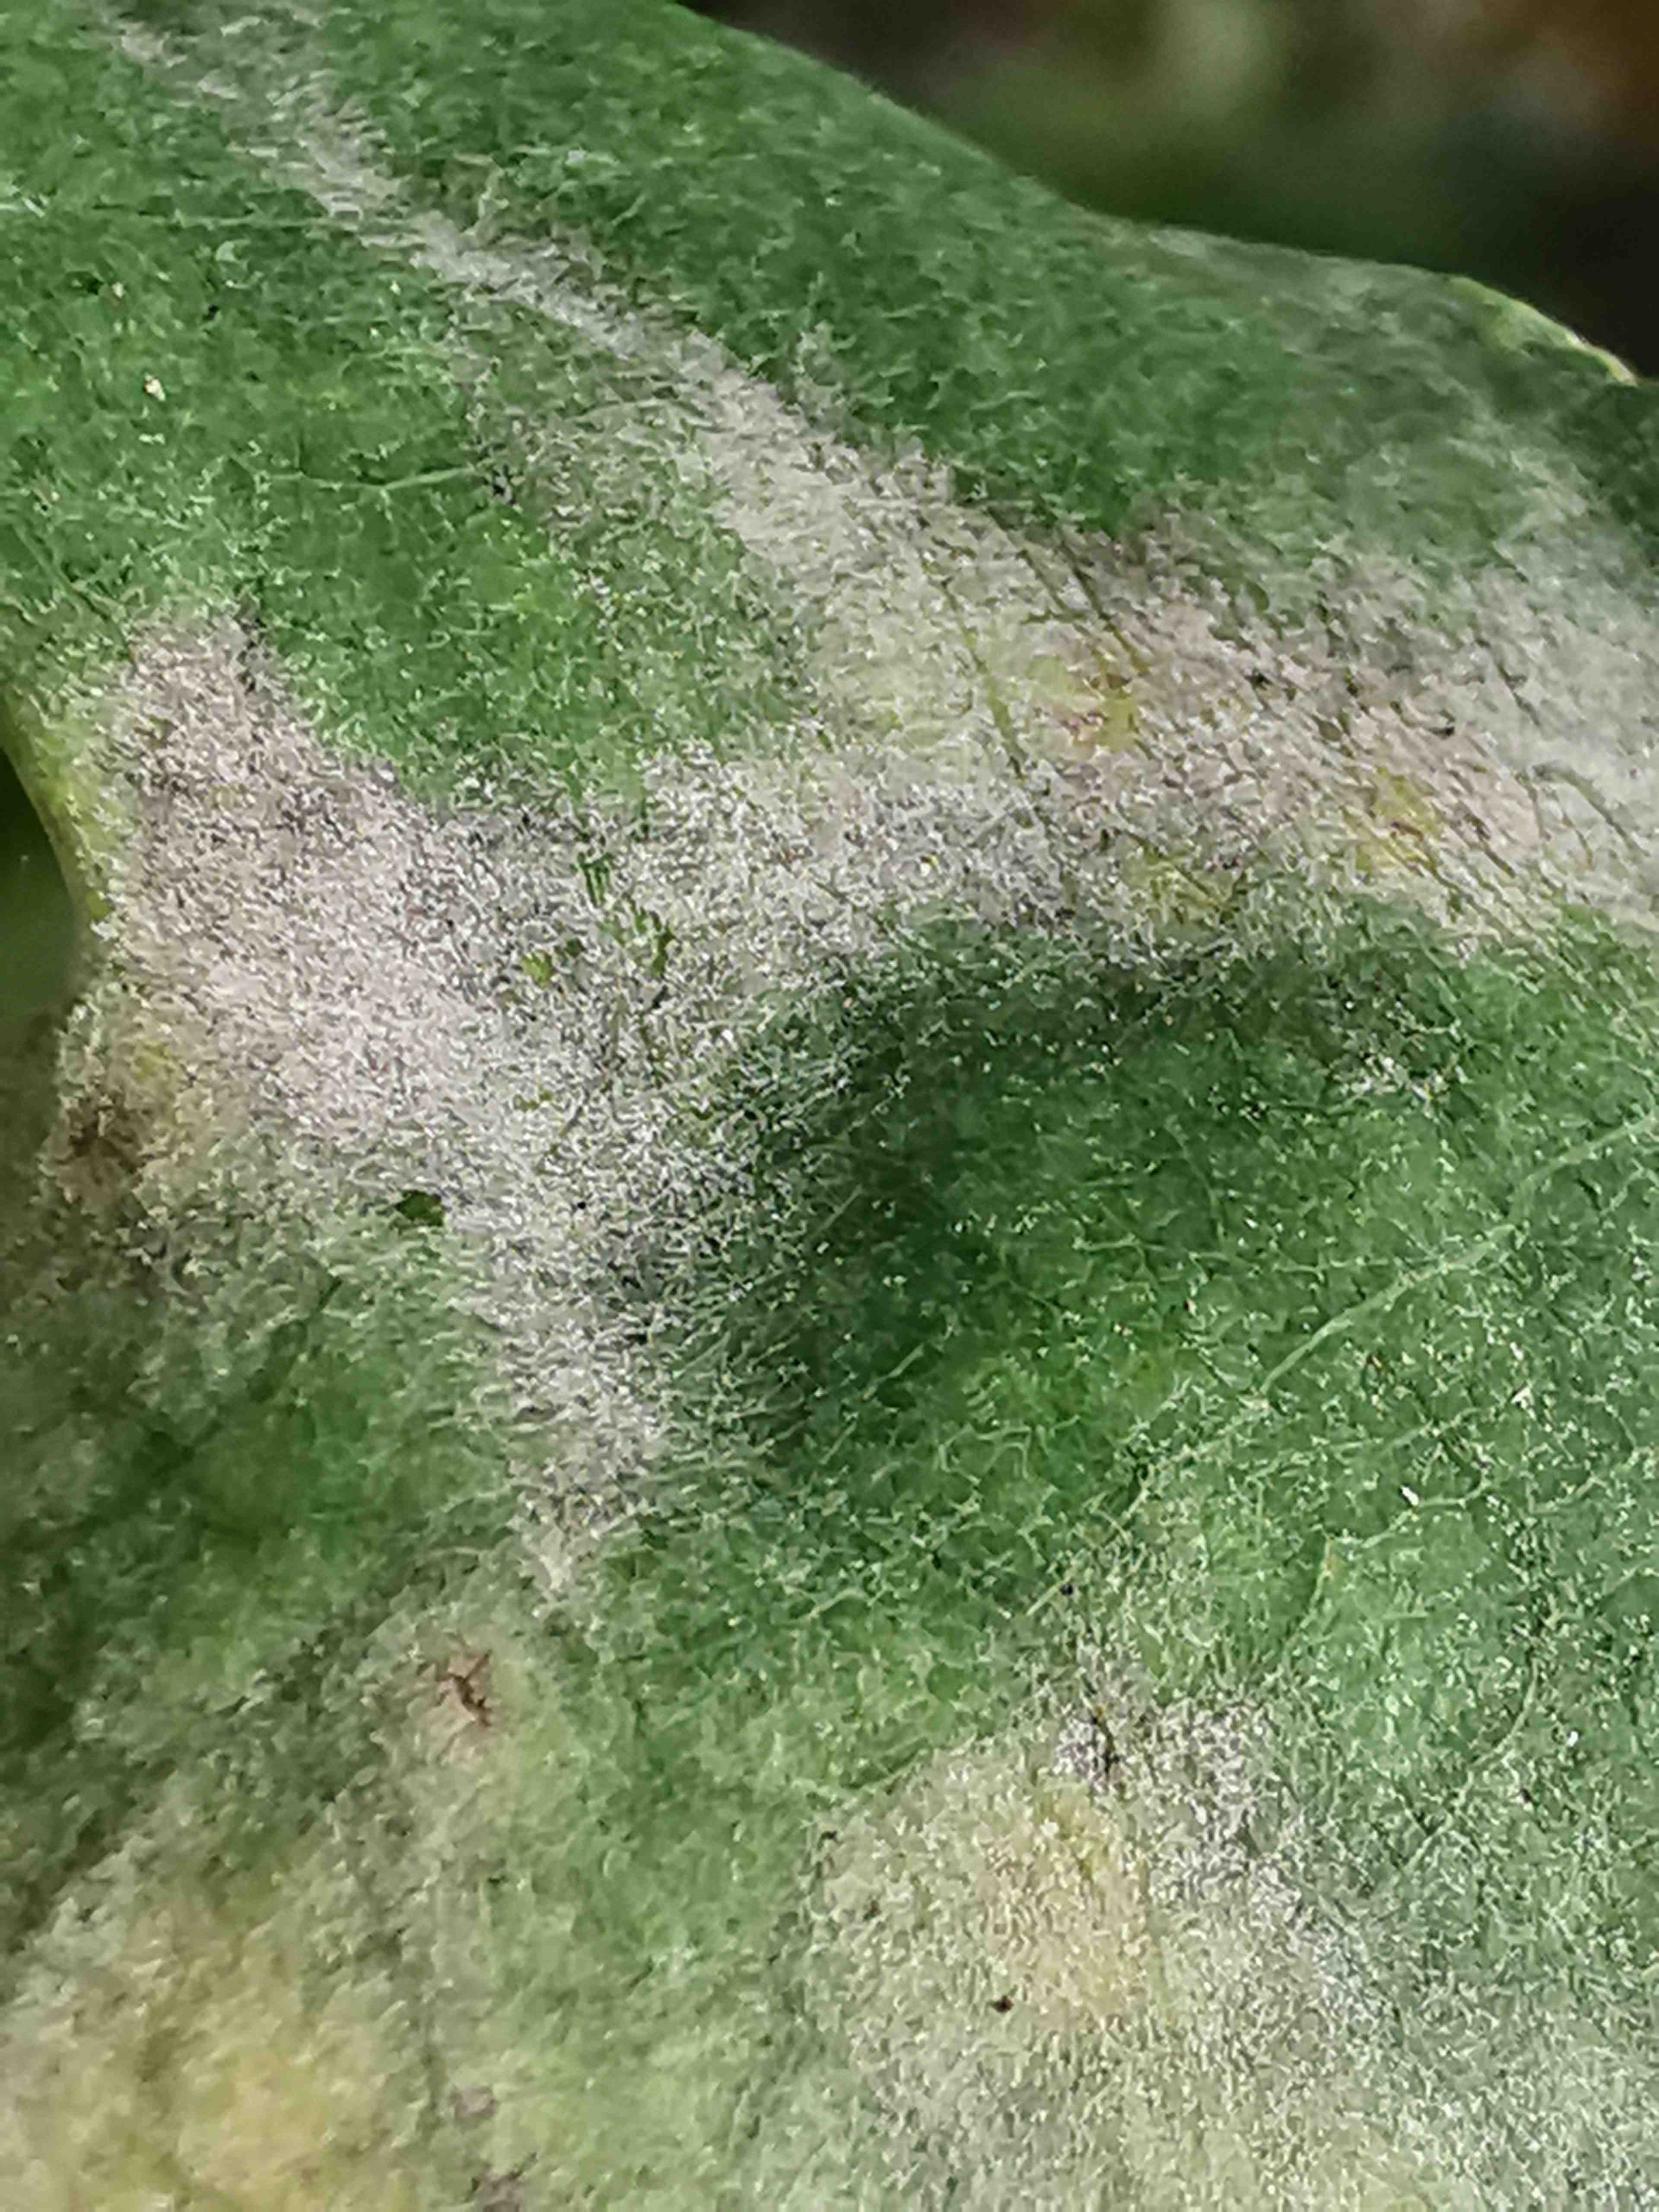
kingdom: Fungi
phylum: Ascomycota
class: Leotiomycetes
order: Helotiales
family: Erysiphaceae
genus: Erysiphe
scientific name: Erysiphe alphitoides
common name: ege-meldug
